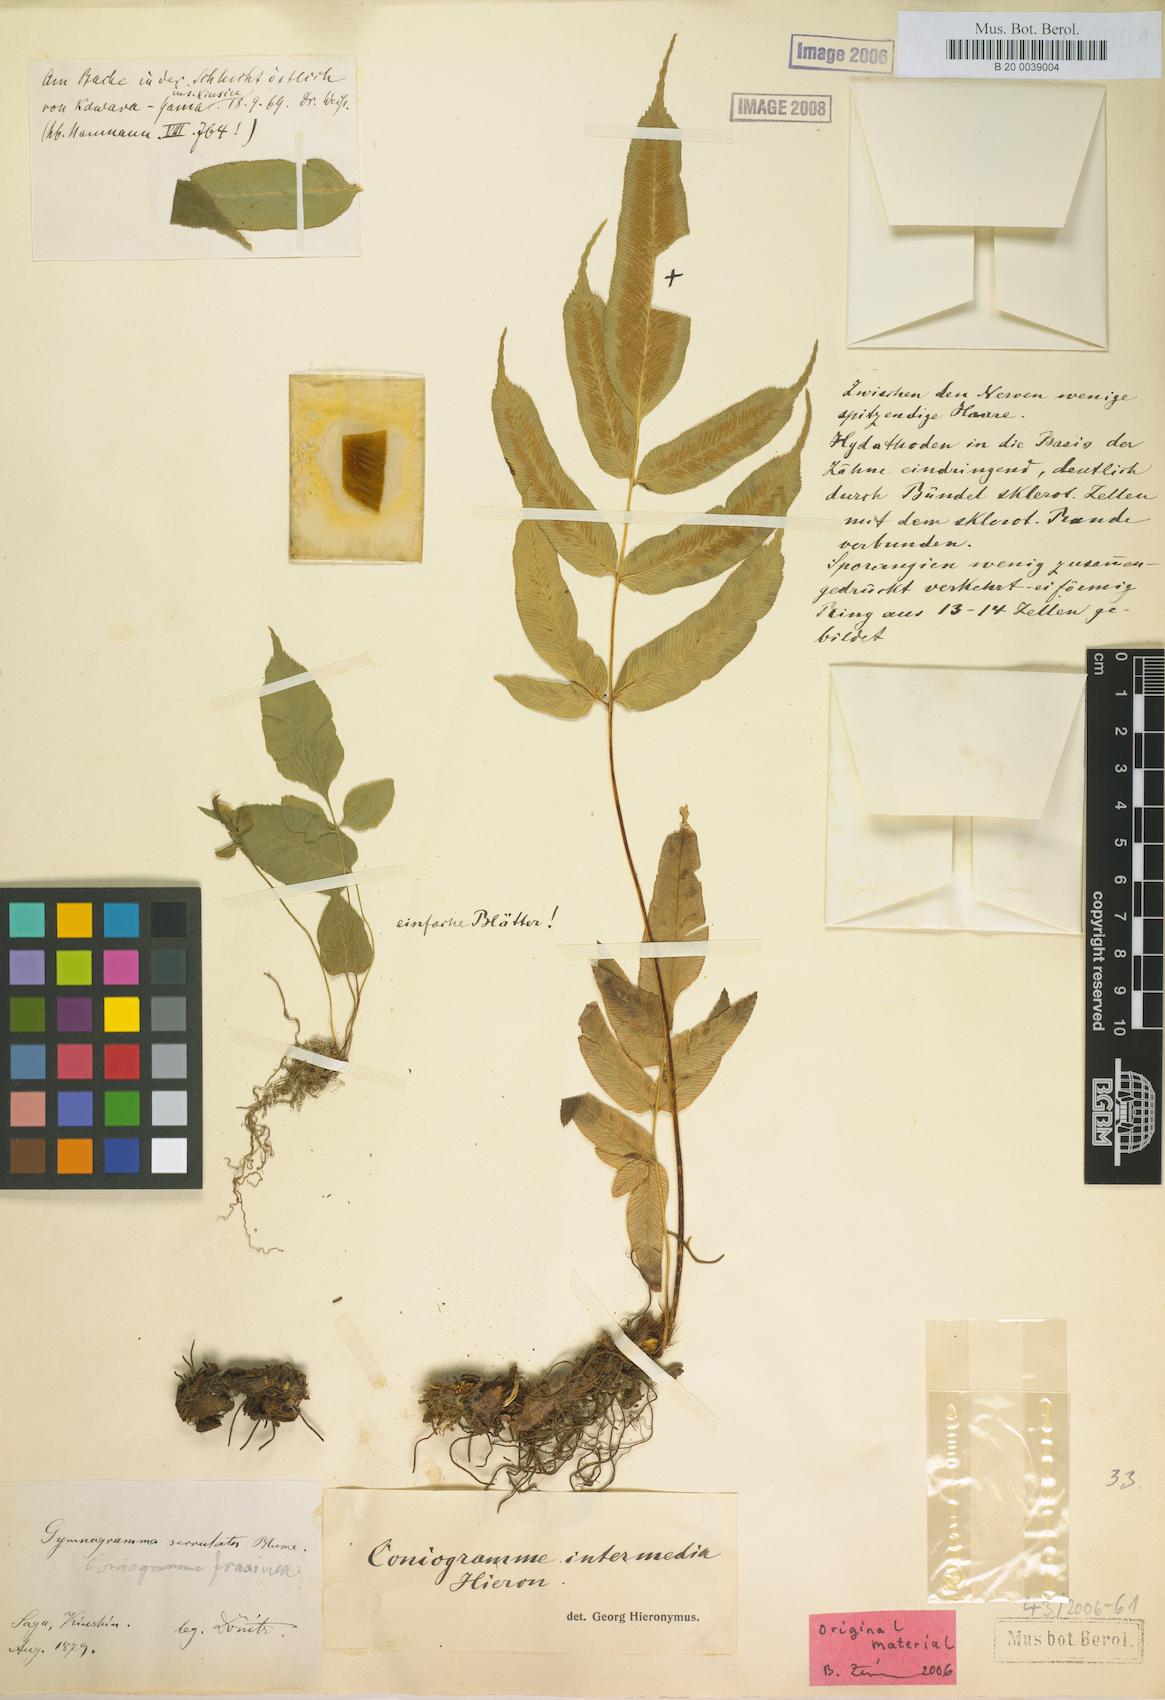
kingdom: Plantae
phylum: Tracheophyta
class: Polypodiopsida
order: Polypodiales
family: Pteridaceae
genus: Coniogramme
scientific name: Coniogramme intermedia
